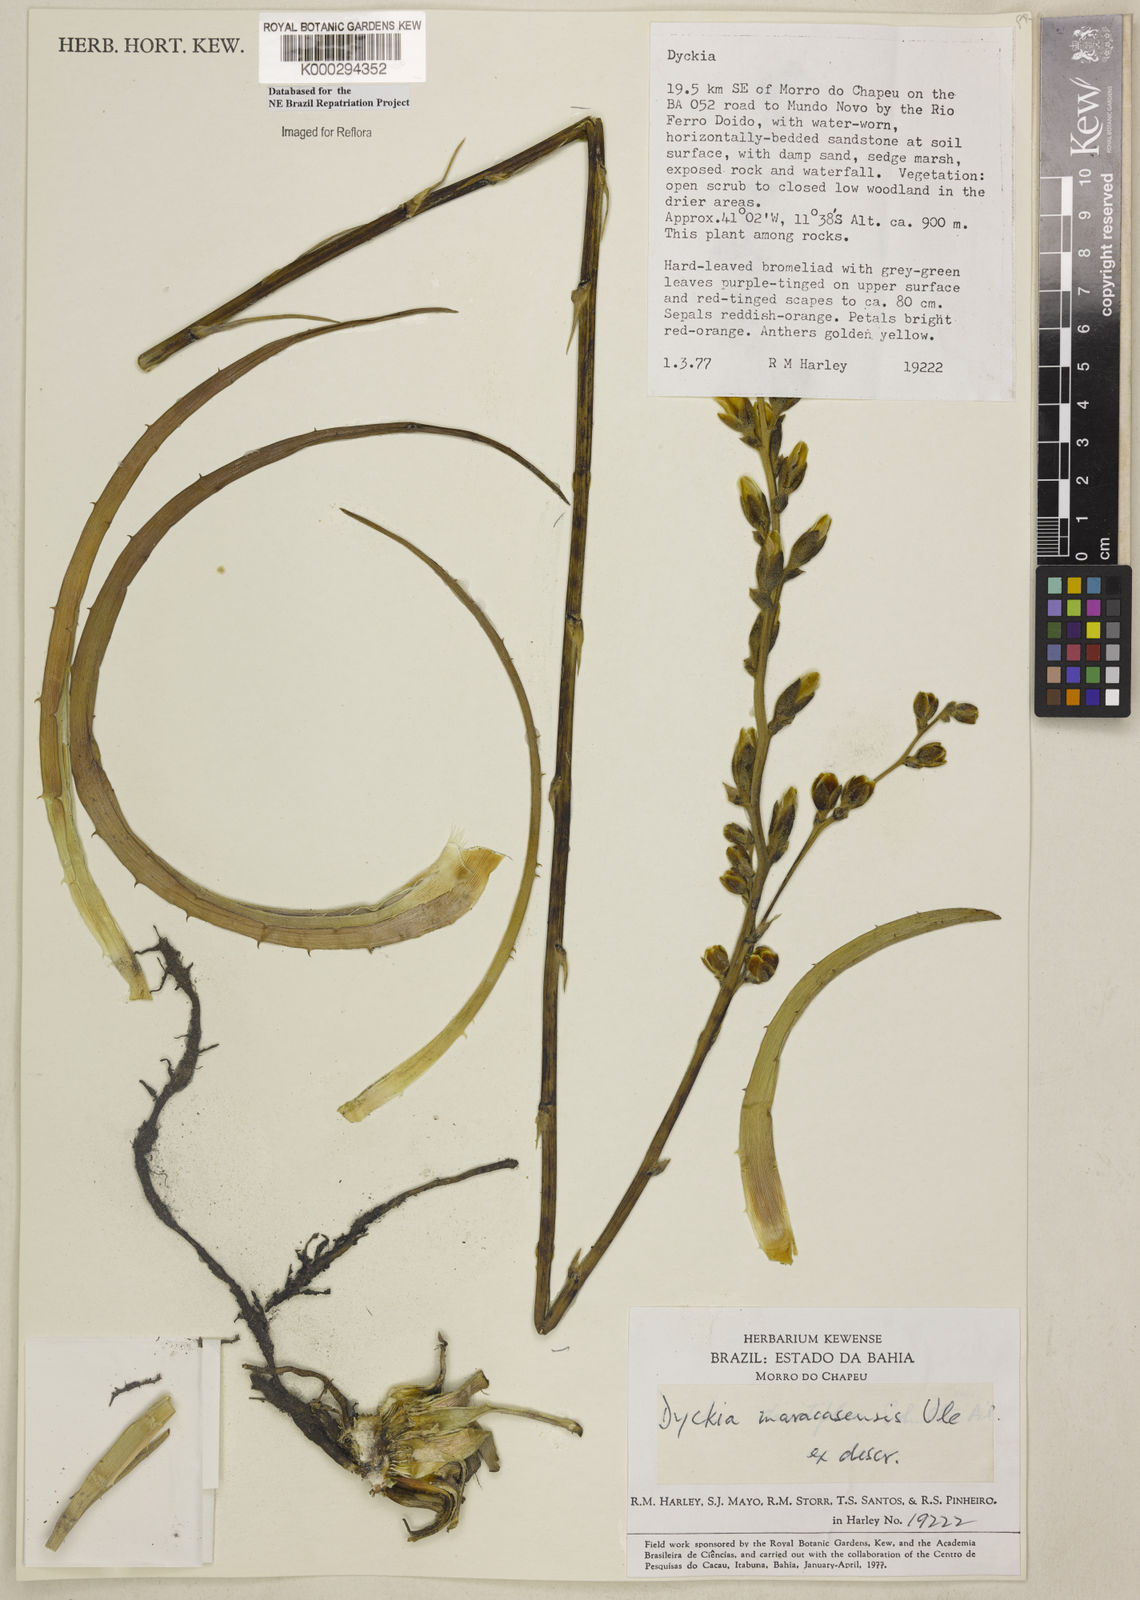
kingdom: Plantae
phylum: Tracheophyta
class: Liliopsida
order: Poales
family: Bromeliaceae
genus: Dyckia
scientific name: Dyckia maracasensis
